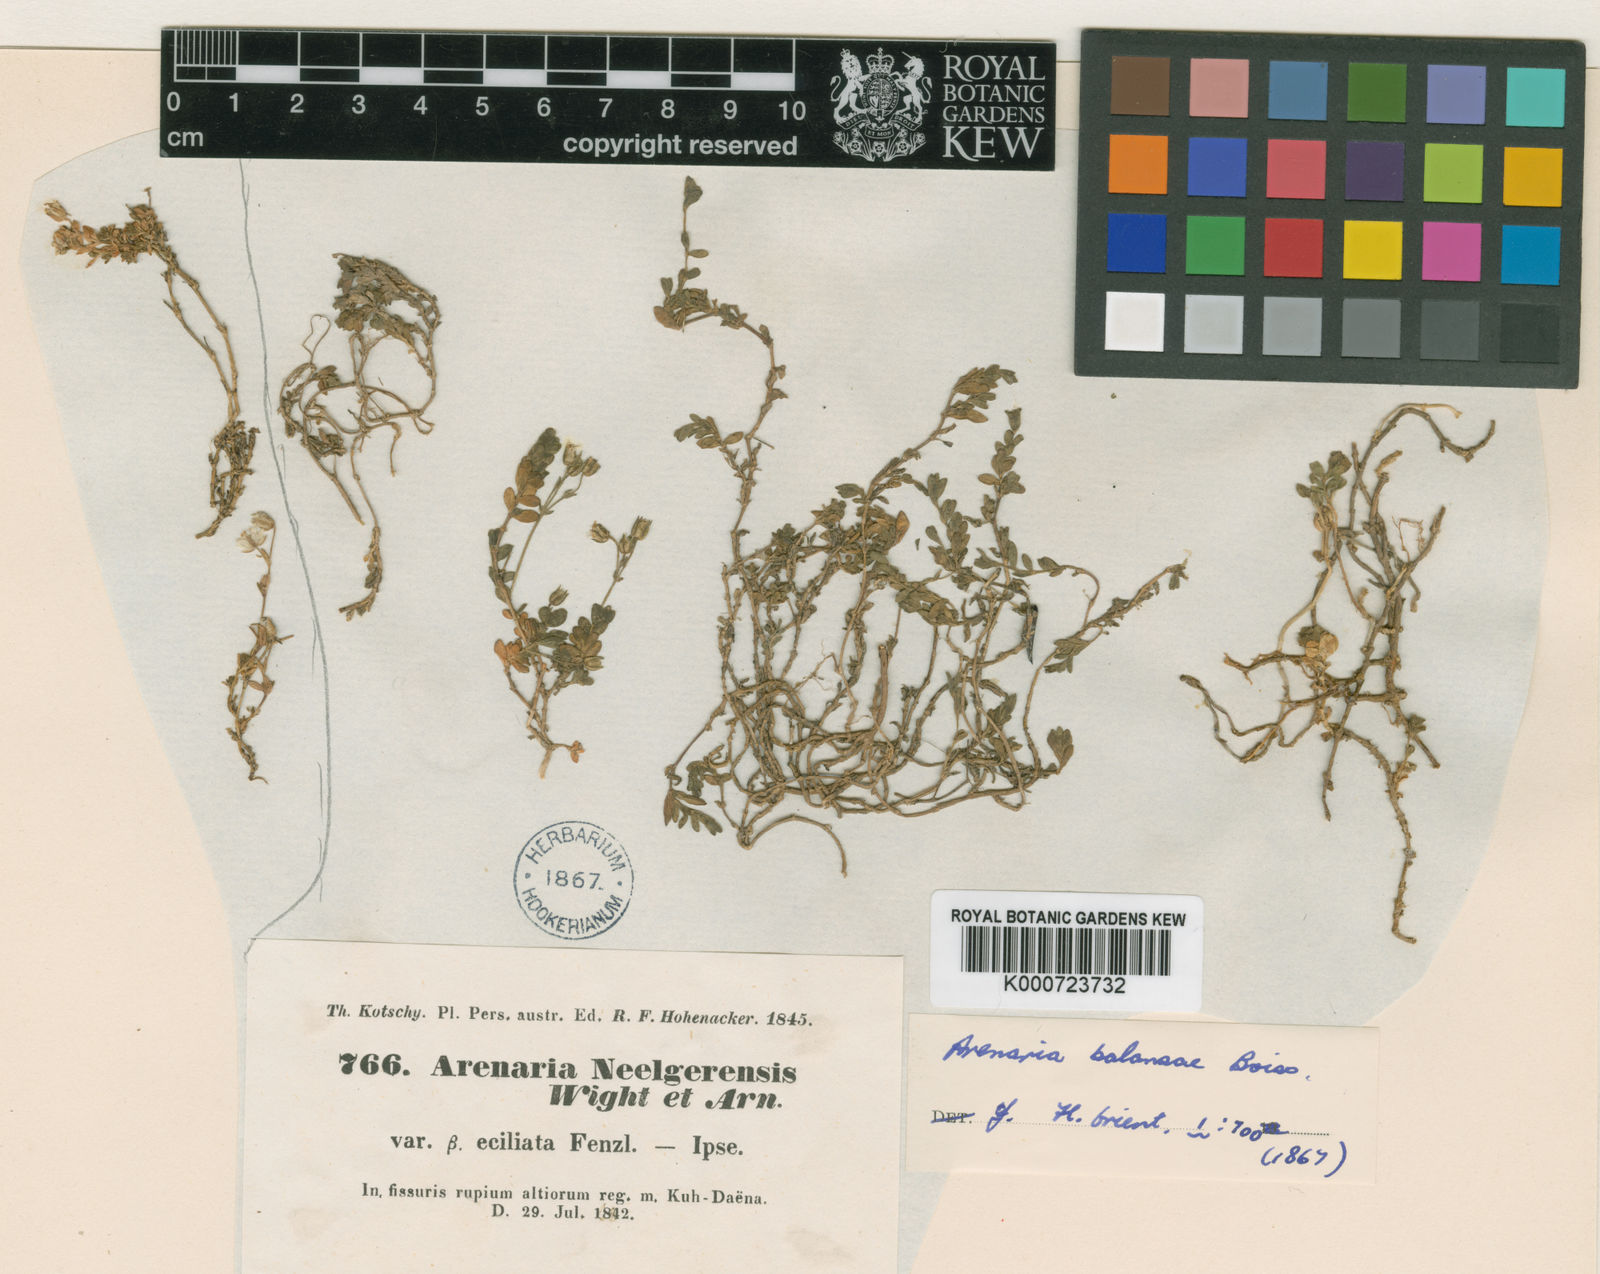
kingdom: Plantae
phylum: Tracheophyta
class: Magnoliopsida
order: Caryophyllales
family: Caryophyllaceae
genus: Arenaria
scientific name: Arenaria balansae
